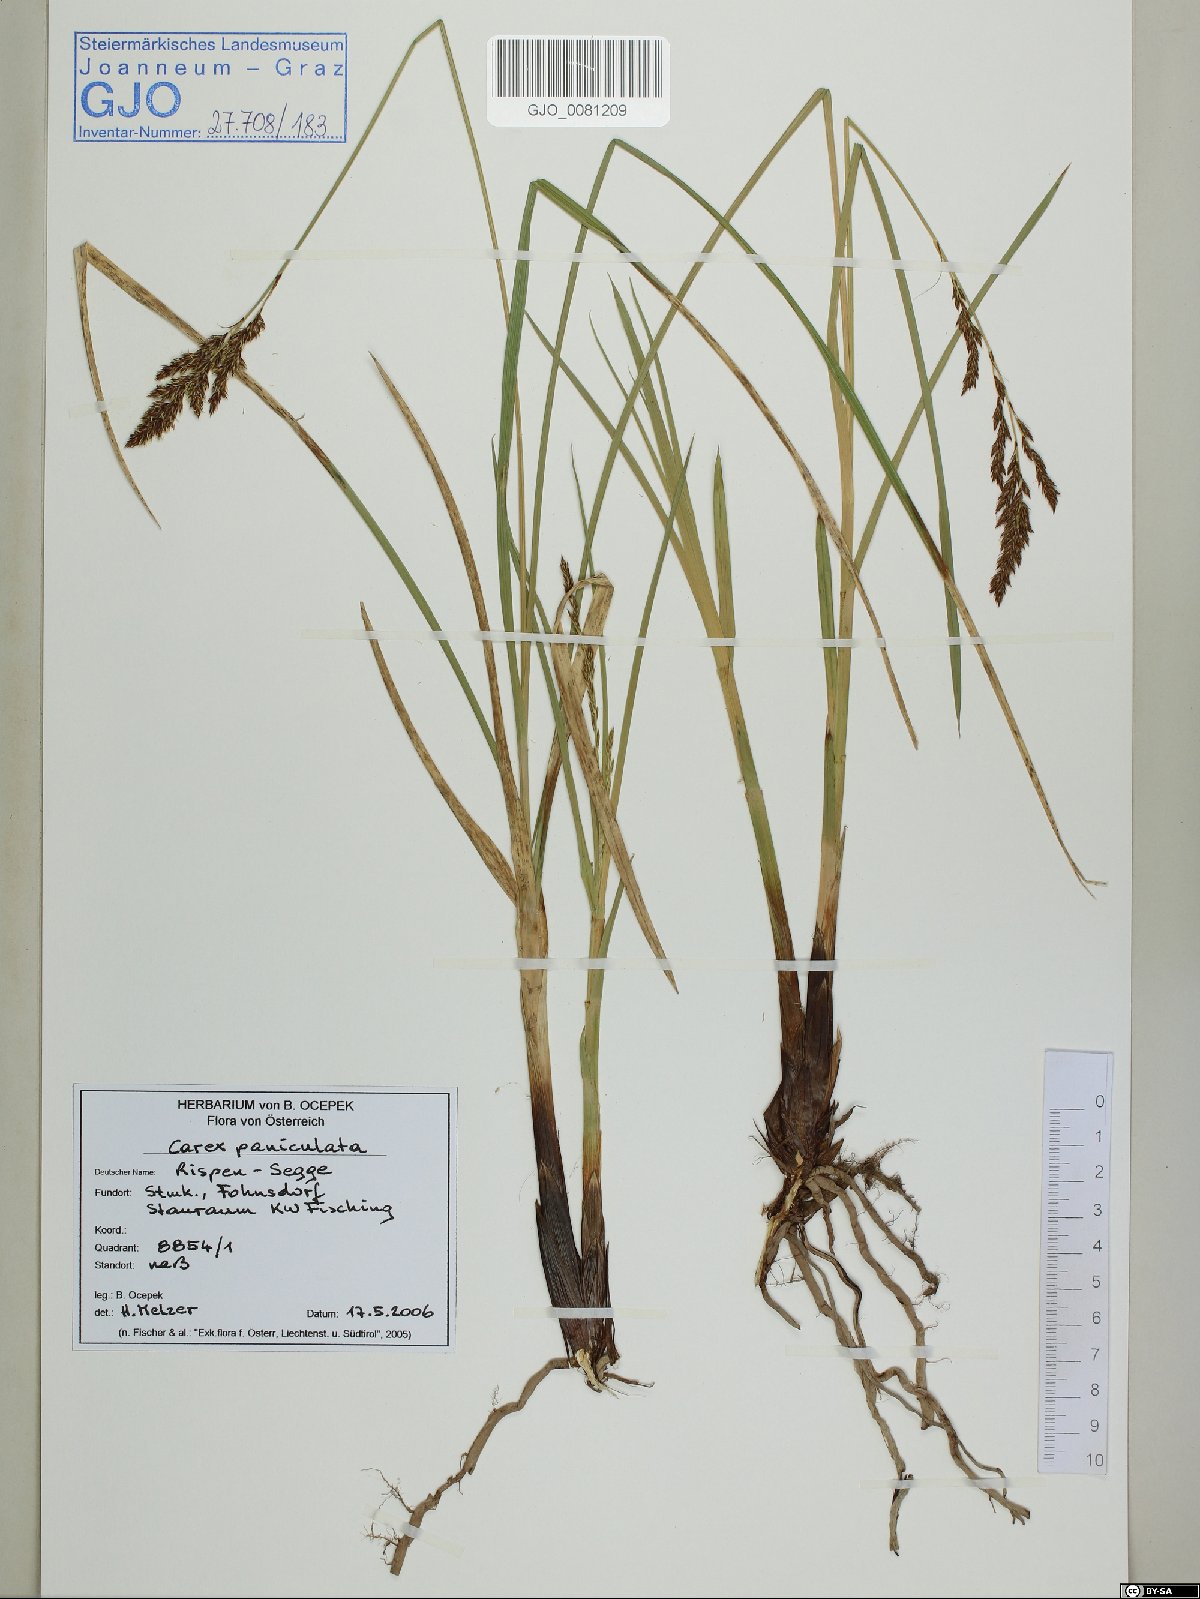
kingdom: Plantae
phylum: Tracheophyta
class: Liliopsida
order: Poales
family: Cyperaceae
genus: Carex
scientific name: Carex paniculata
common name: Greater tussock-sedge
